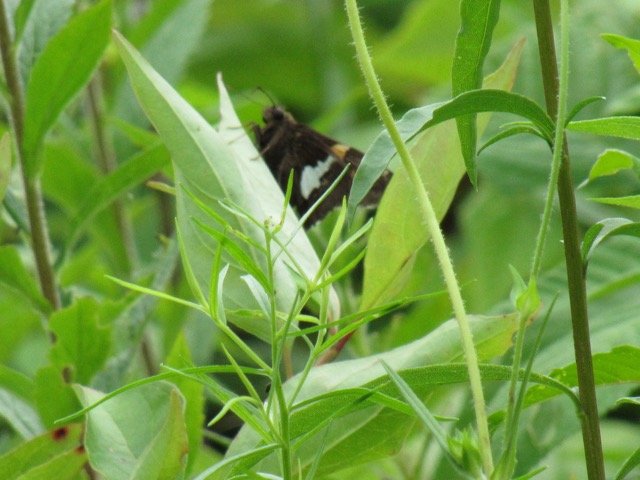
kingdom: Animalia
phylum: Arthropoda
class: Insecta
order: Lepidoptera
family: Hesperiidae
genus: Epargyreus
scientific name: Epargyreus clarus
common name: Silver-spotted Skipper
